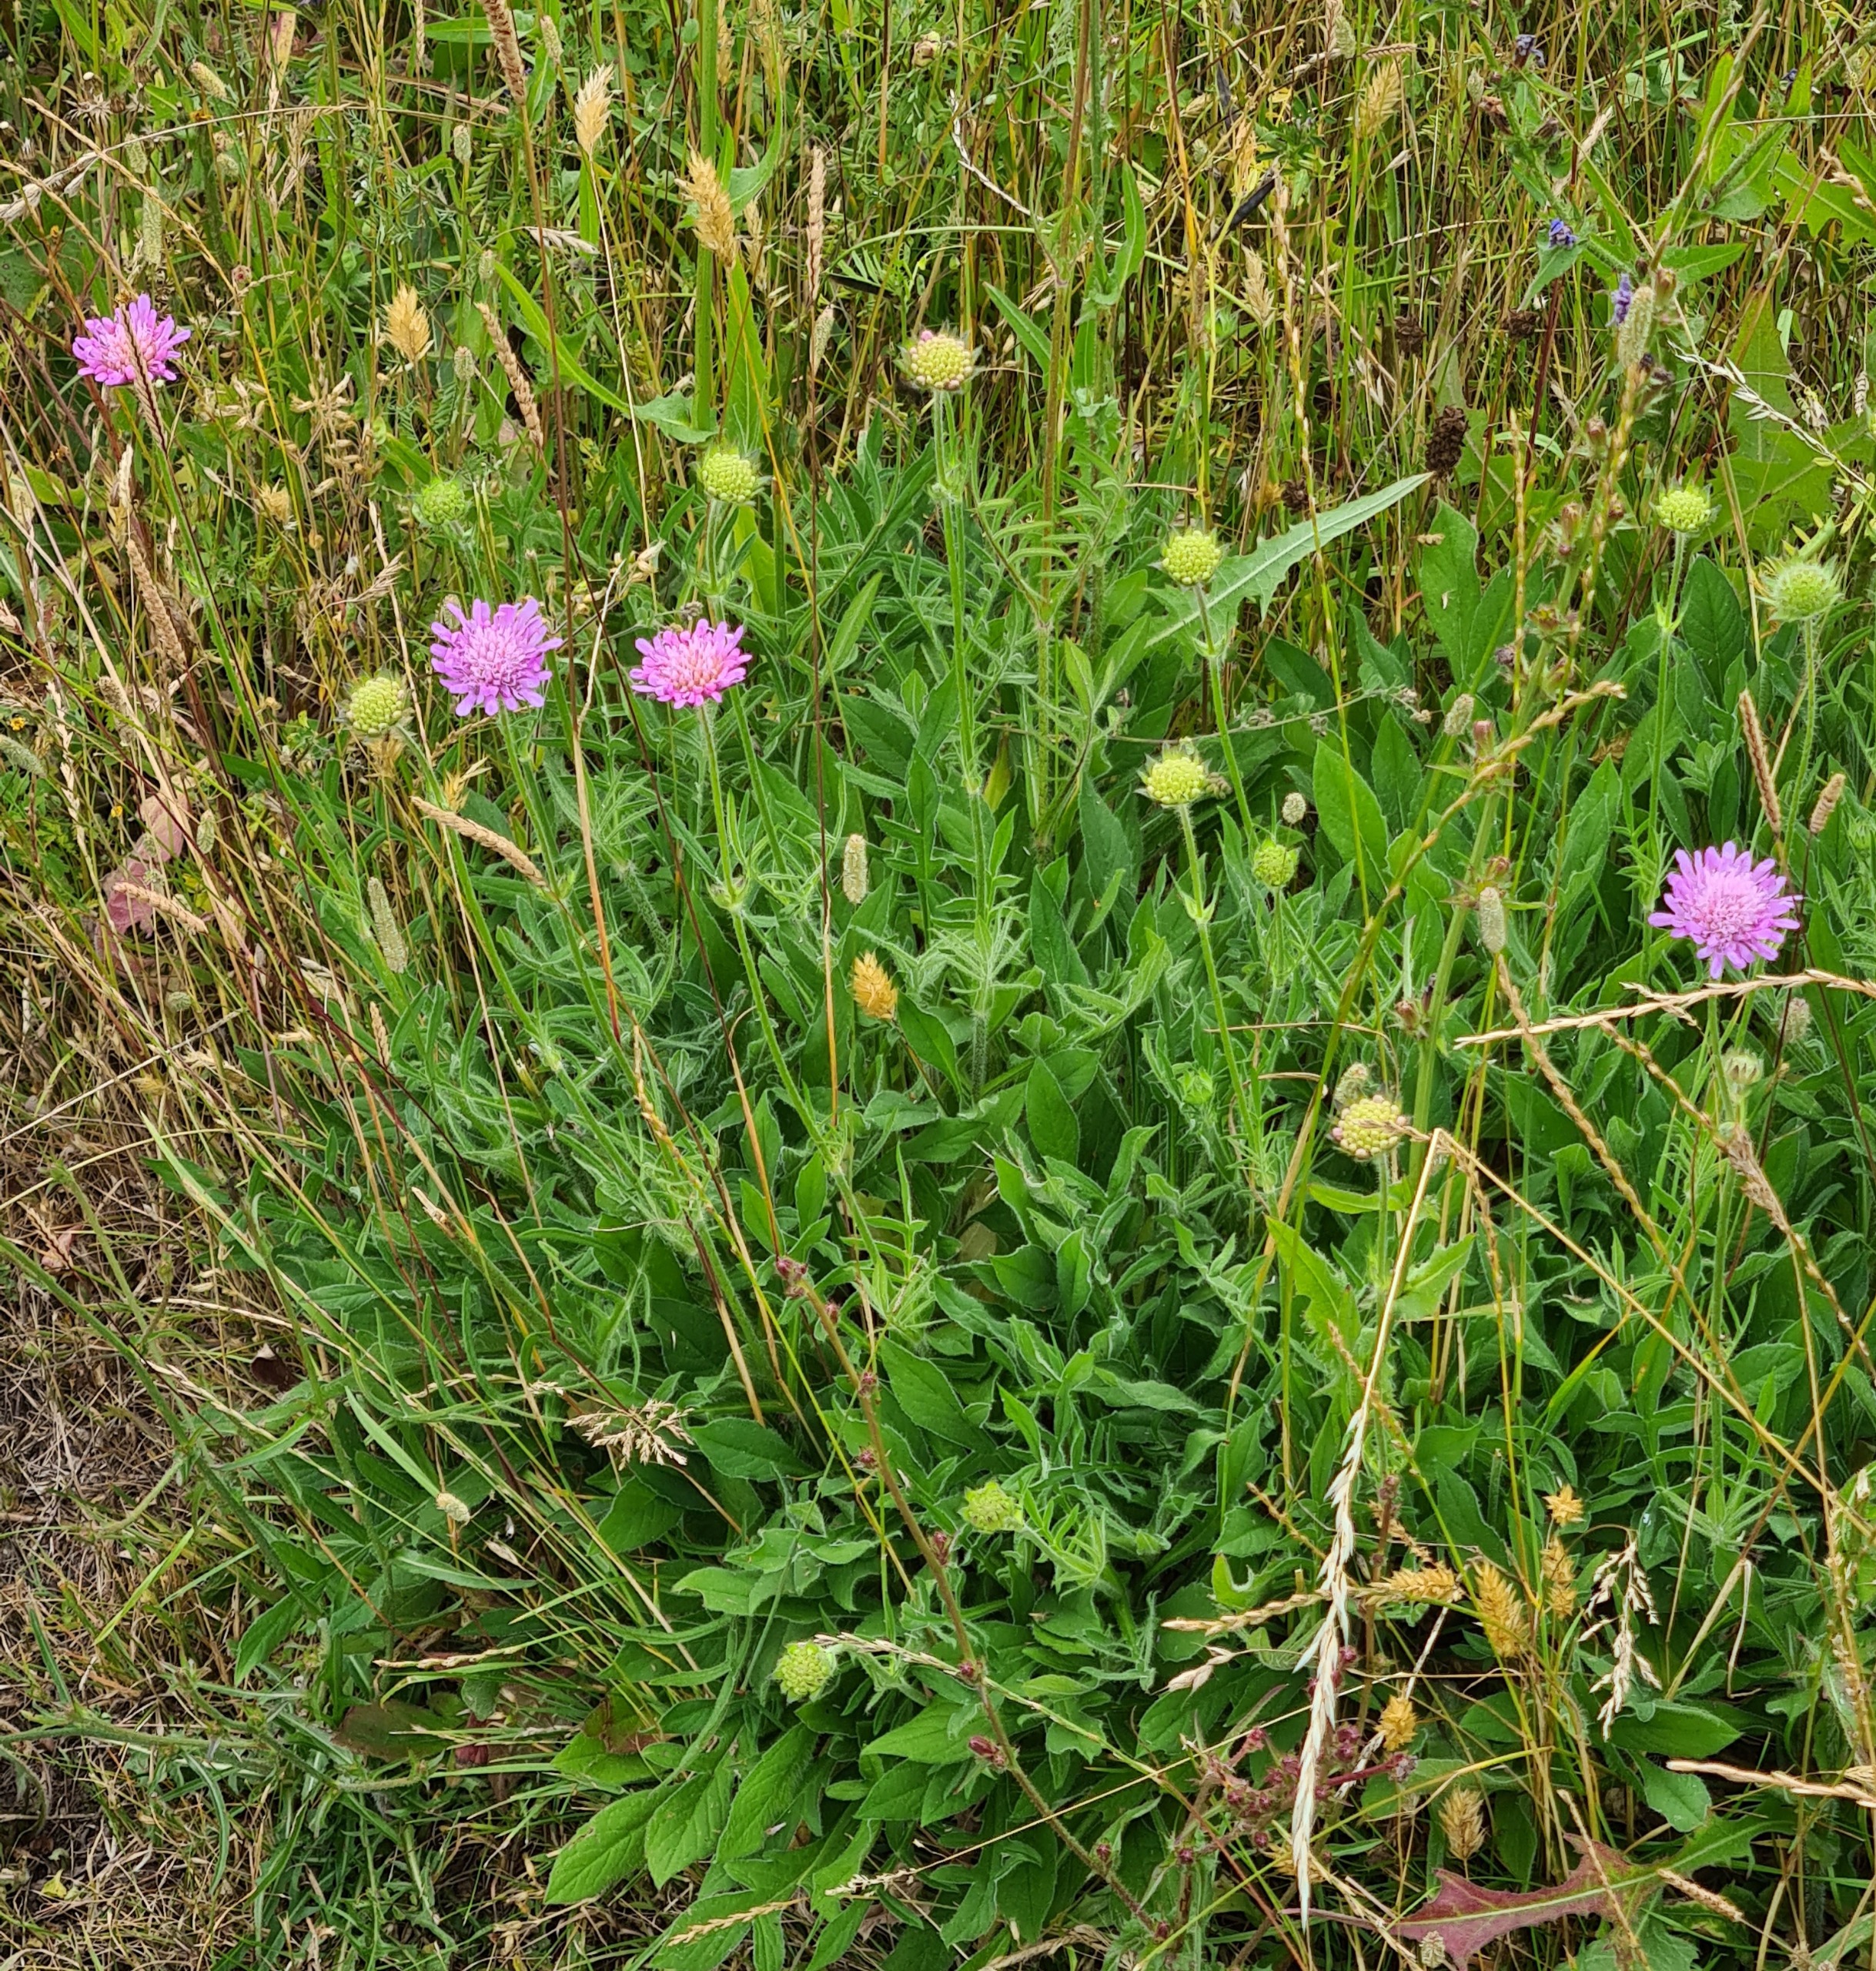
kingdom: Plantae
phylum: Tracheophyta
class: Magnoliopsida
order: Dipsacales
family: Caprifoliaceae
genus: Knautia
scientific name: Knautia arvensis
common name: Blåhat
